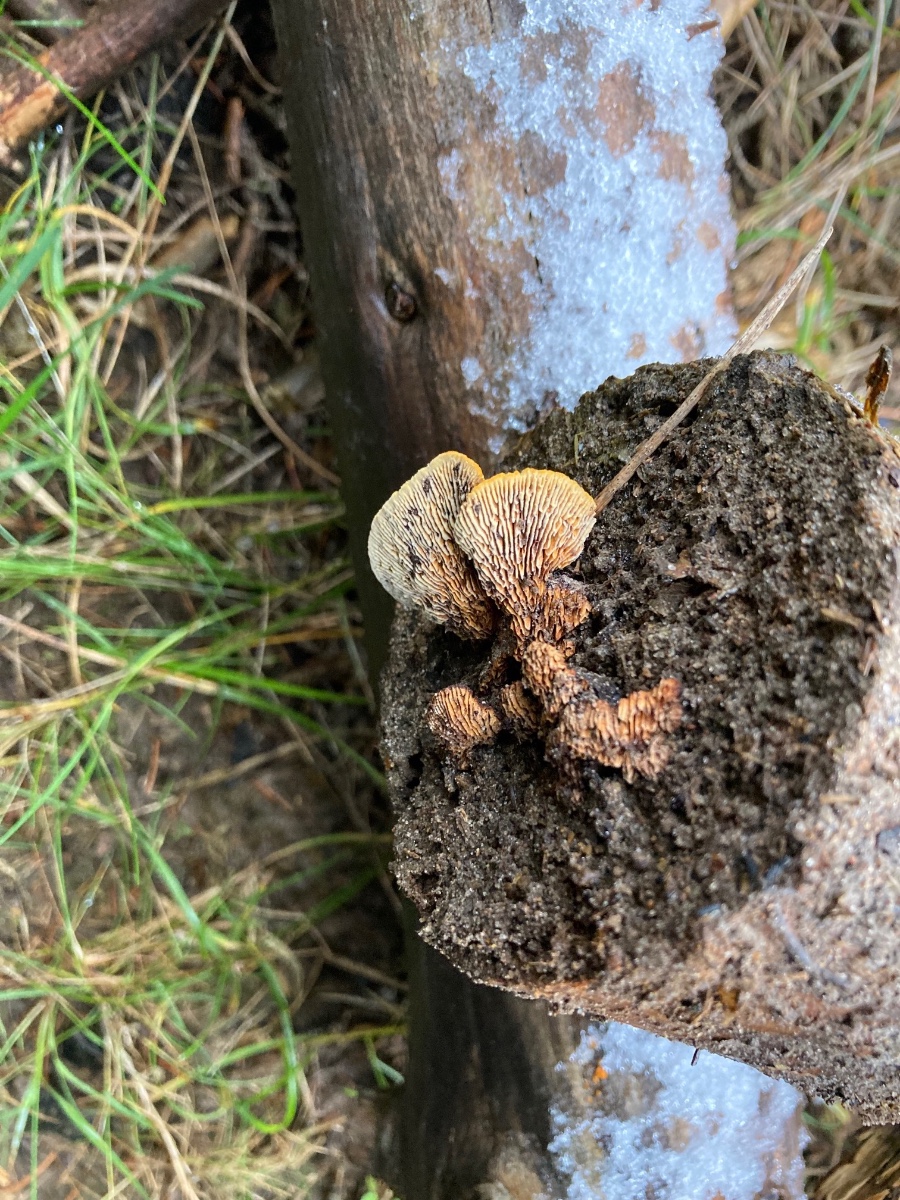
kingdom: Fungi
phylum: Basidiomycota
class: Agaricomycetes
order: Gloeophyllales
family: Gloeophyllaceae
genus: Gloeophyllum
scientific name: Gloeophyllum sepiarium
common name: fyrre-korkhat
